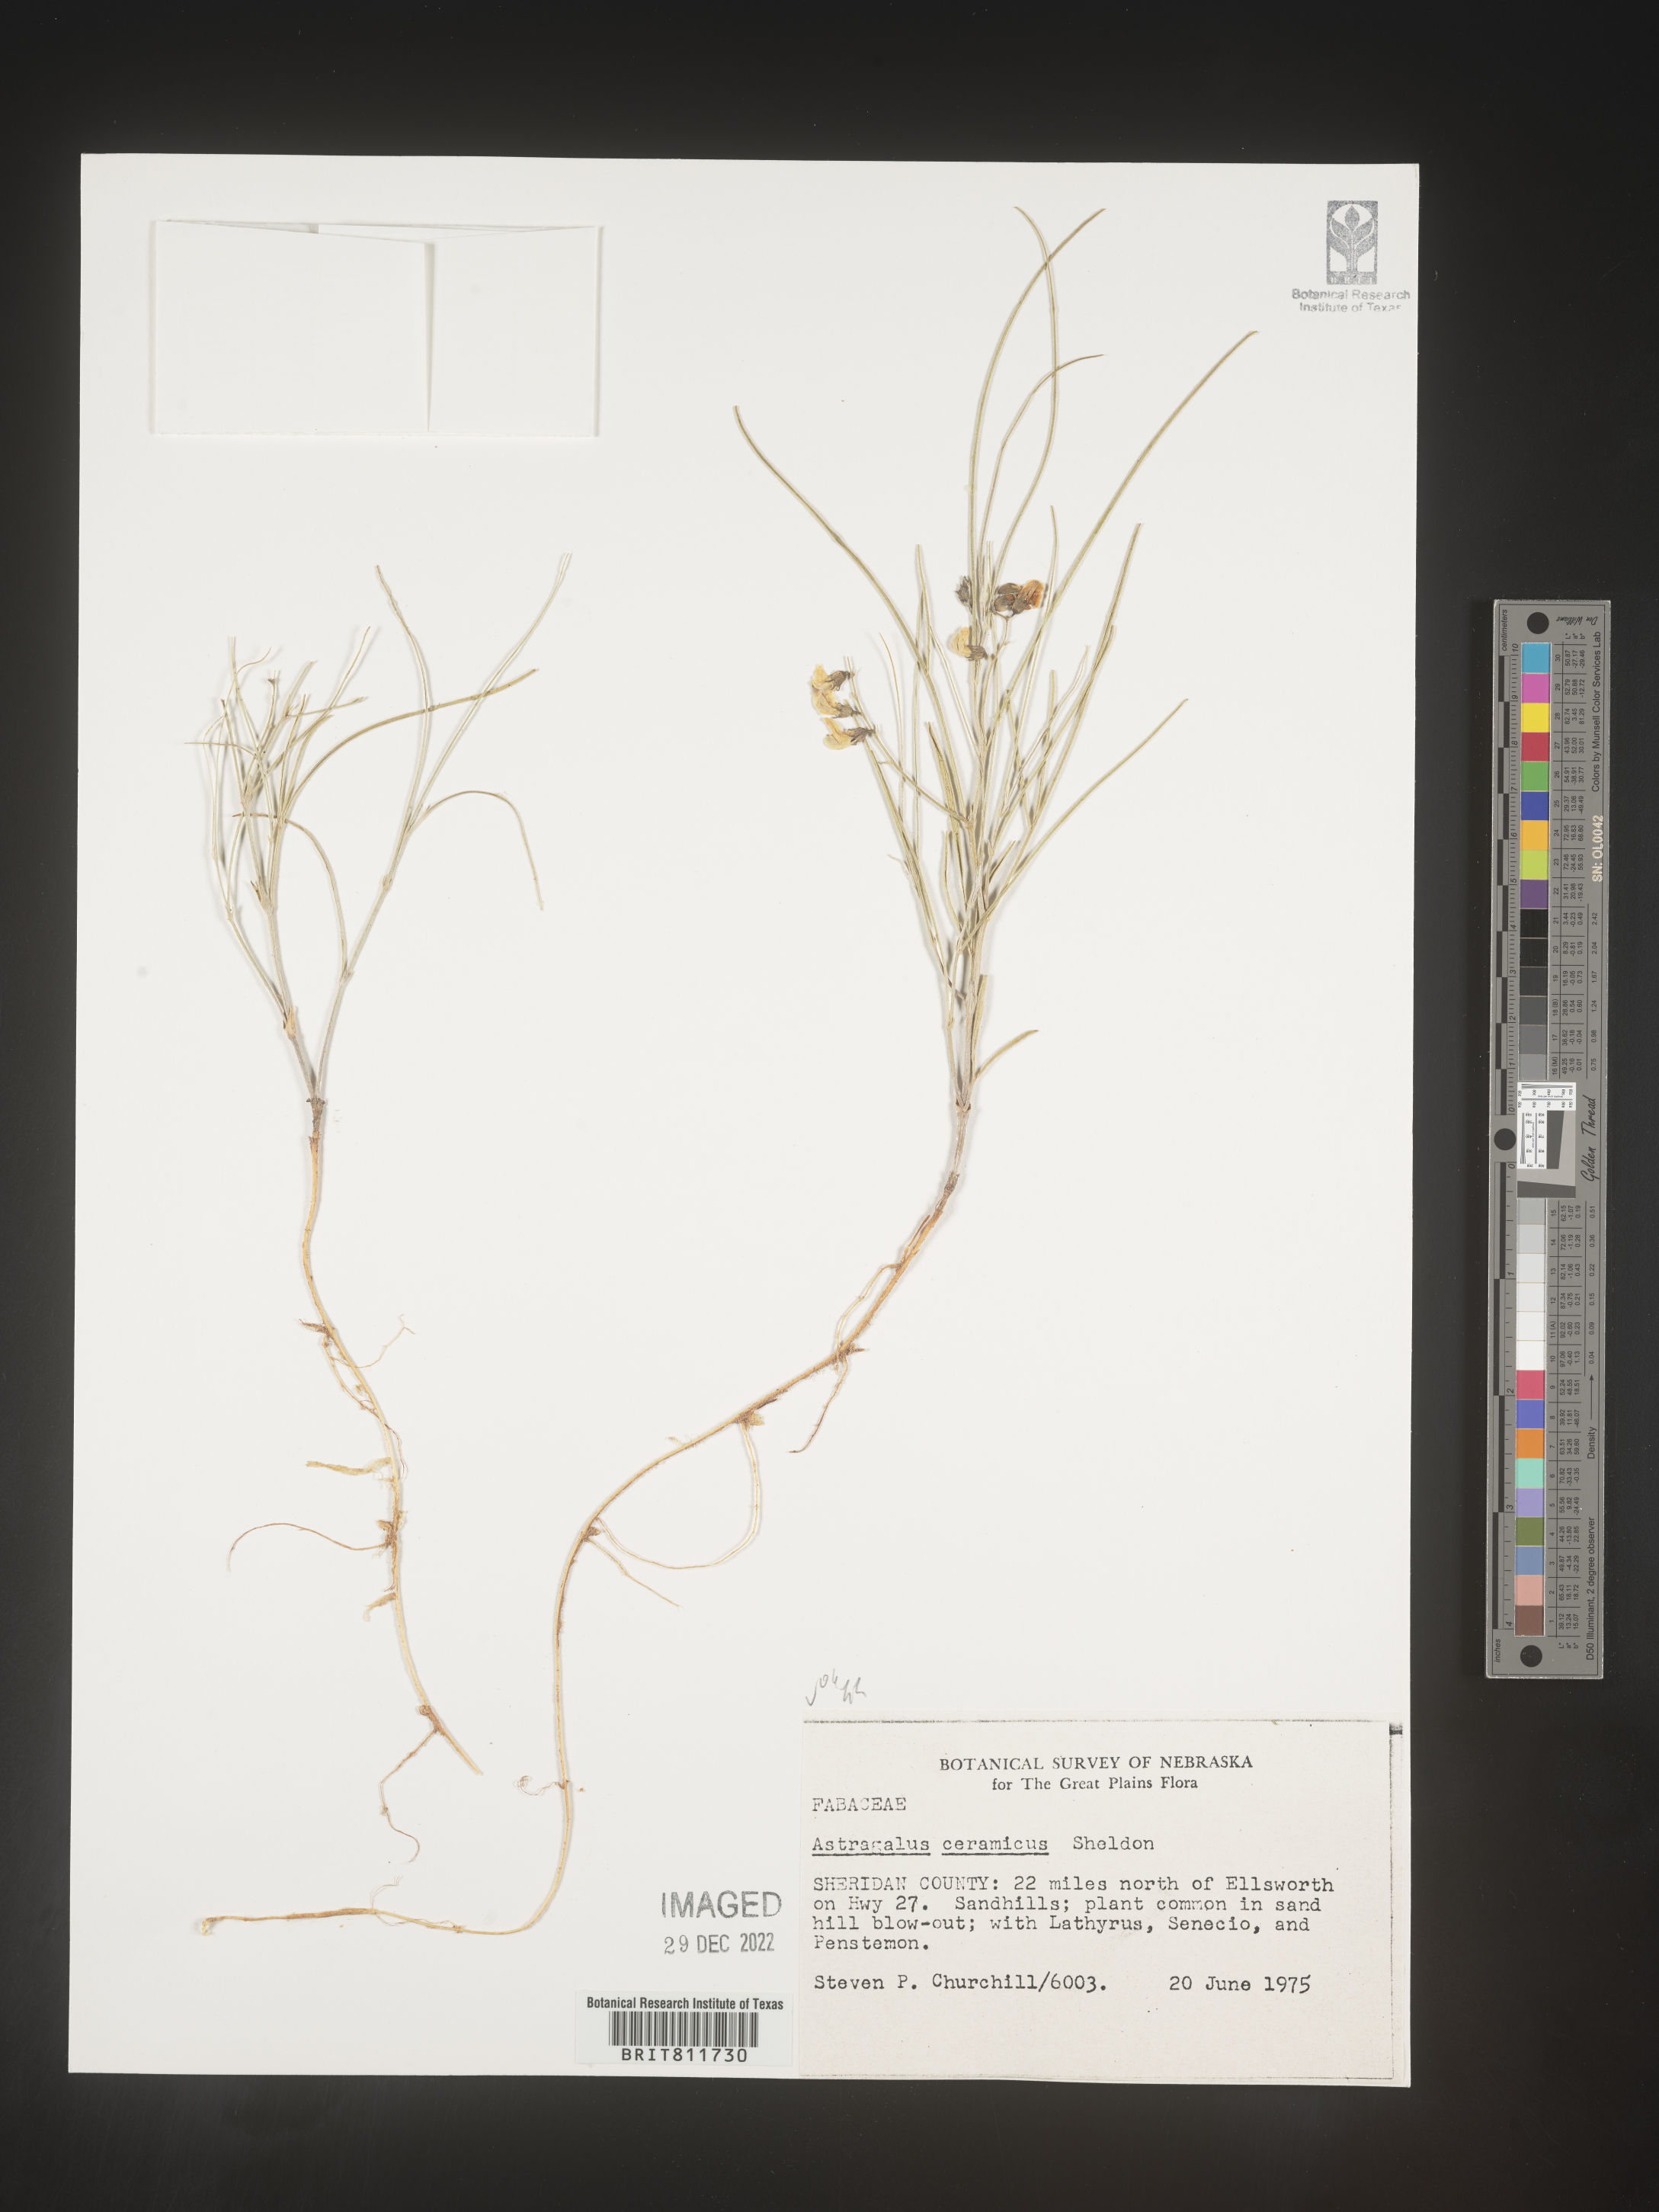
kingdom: Plantae
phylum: Tracheophyta
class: Magnoliopsida
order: Fabales
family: Fabaceae
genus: Astragalus
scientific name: Astragalus
